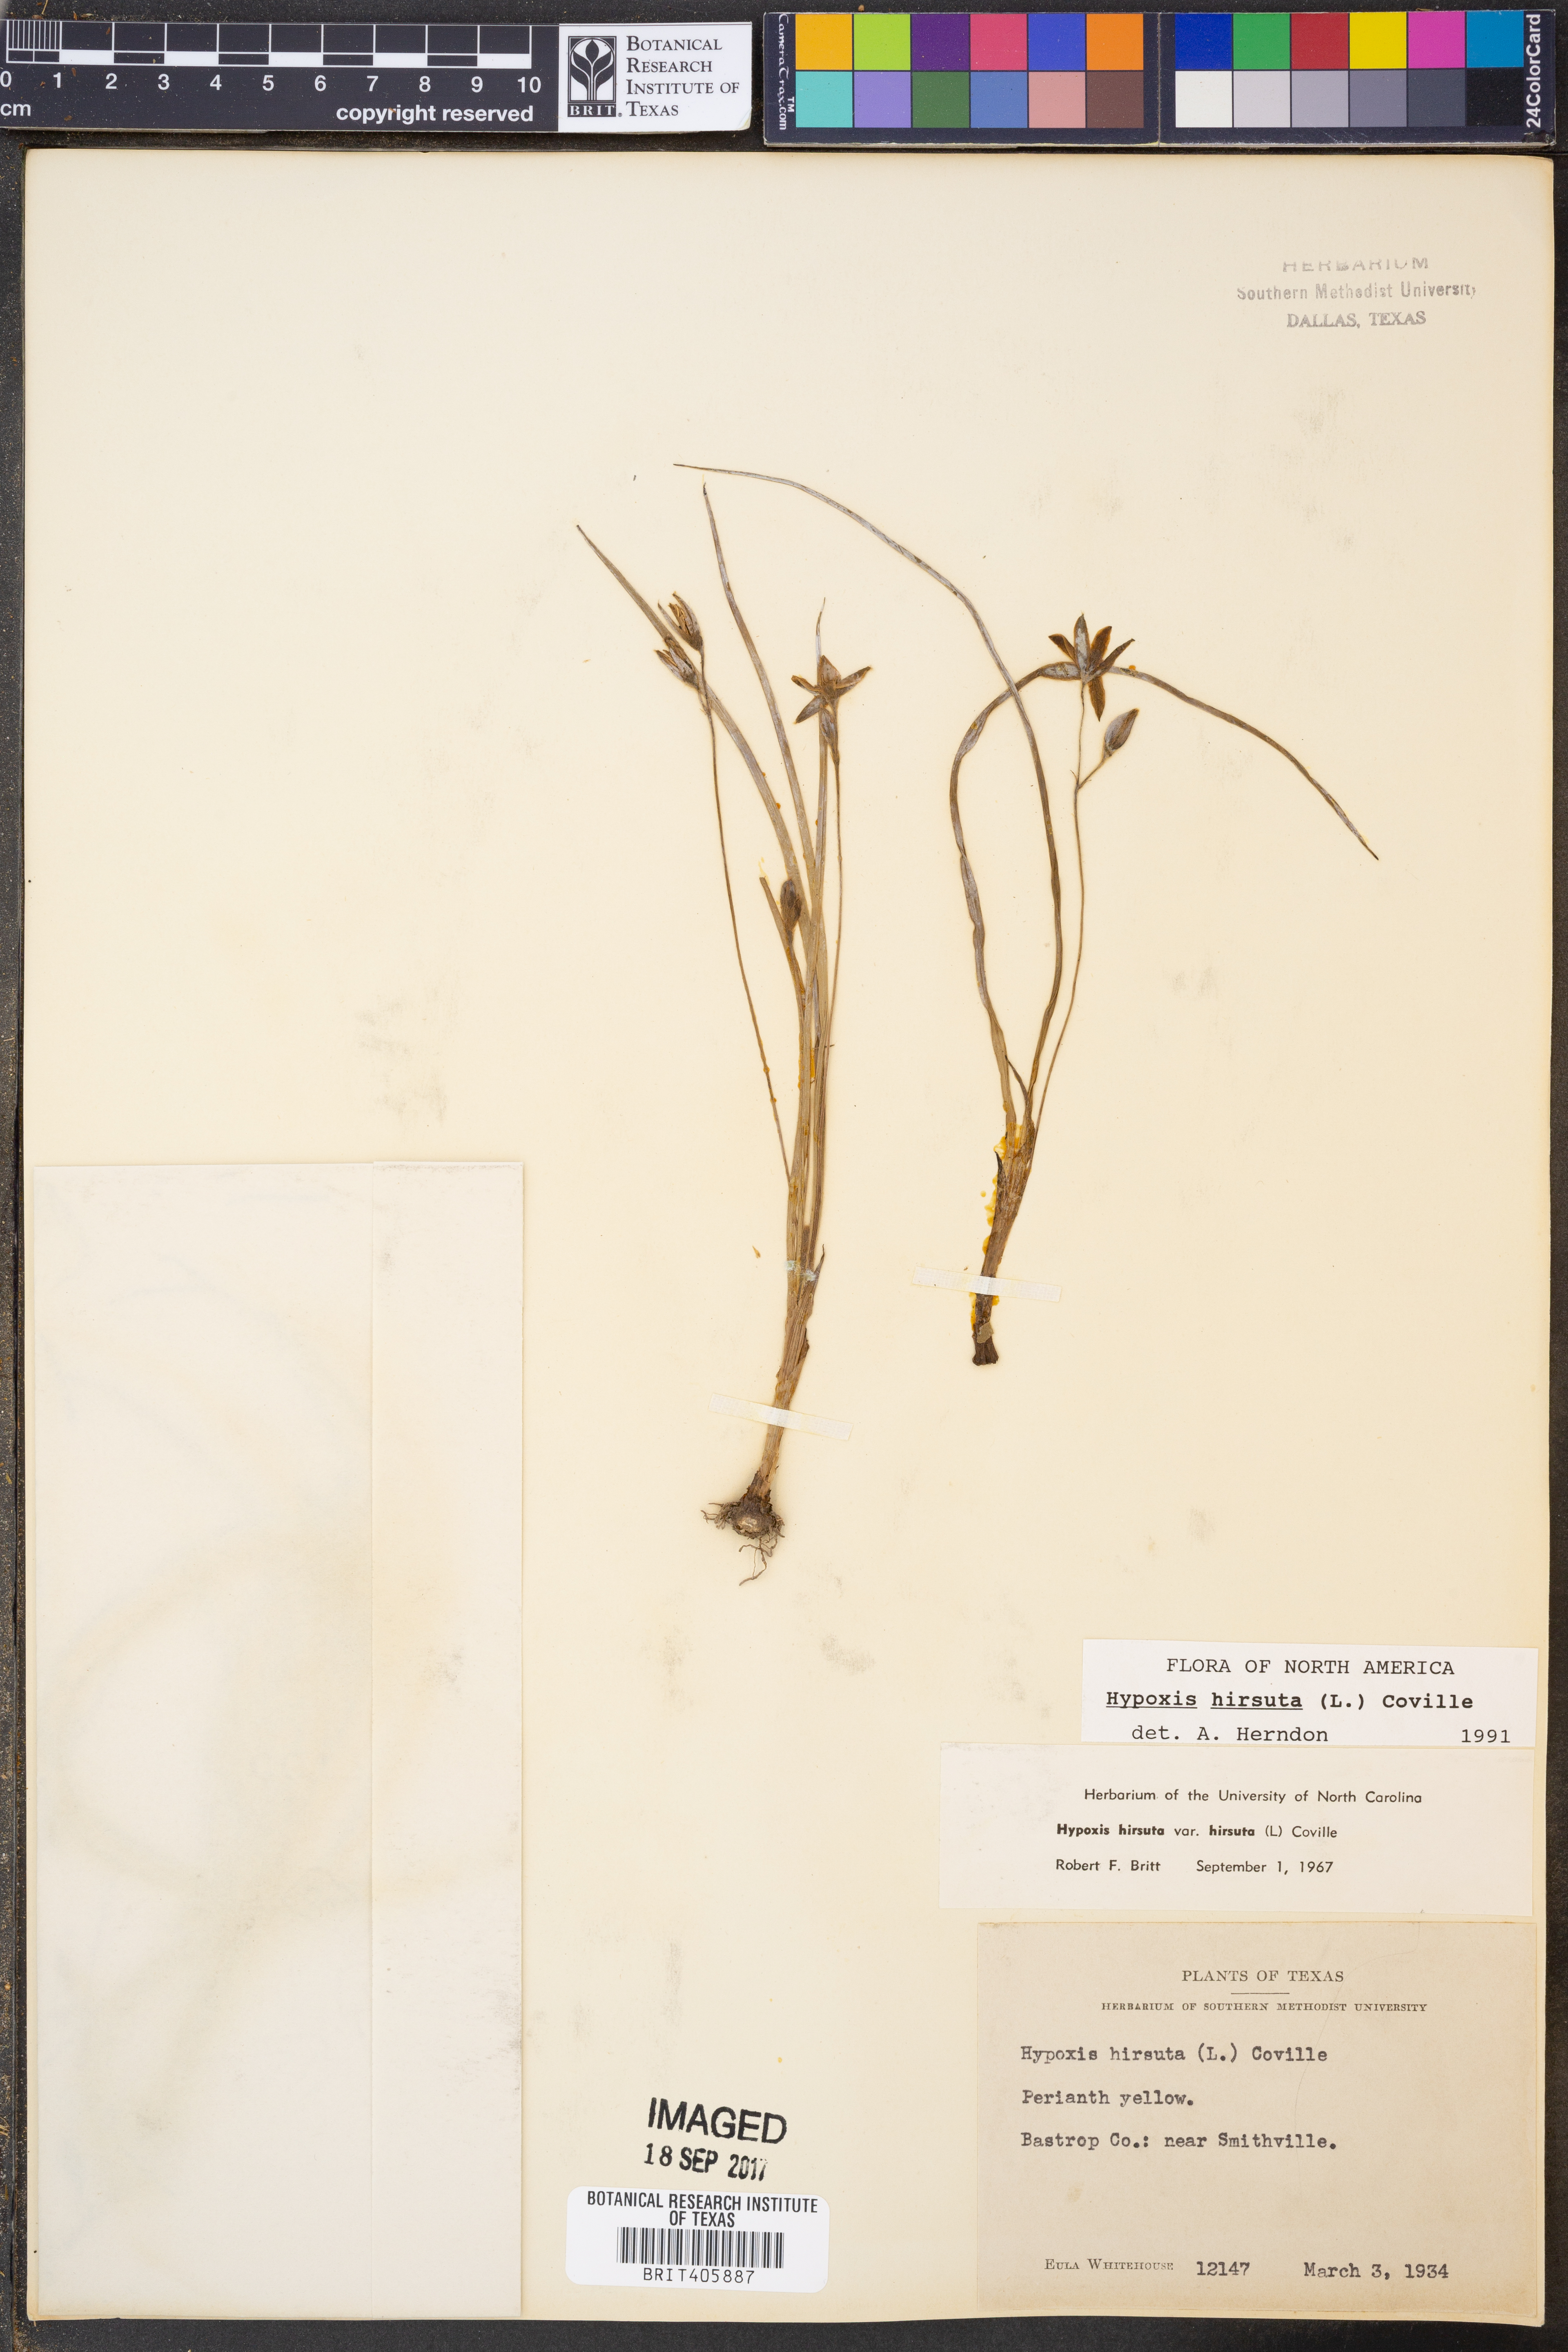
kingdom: Plantae
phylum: Tracheophyta
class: Liliopsida
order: Asparagales
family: Hypoxidaceae
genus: Hypoxis
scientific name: Hypoxis hirsuta
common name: Common goldstar
